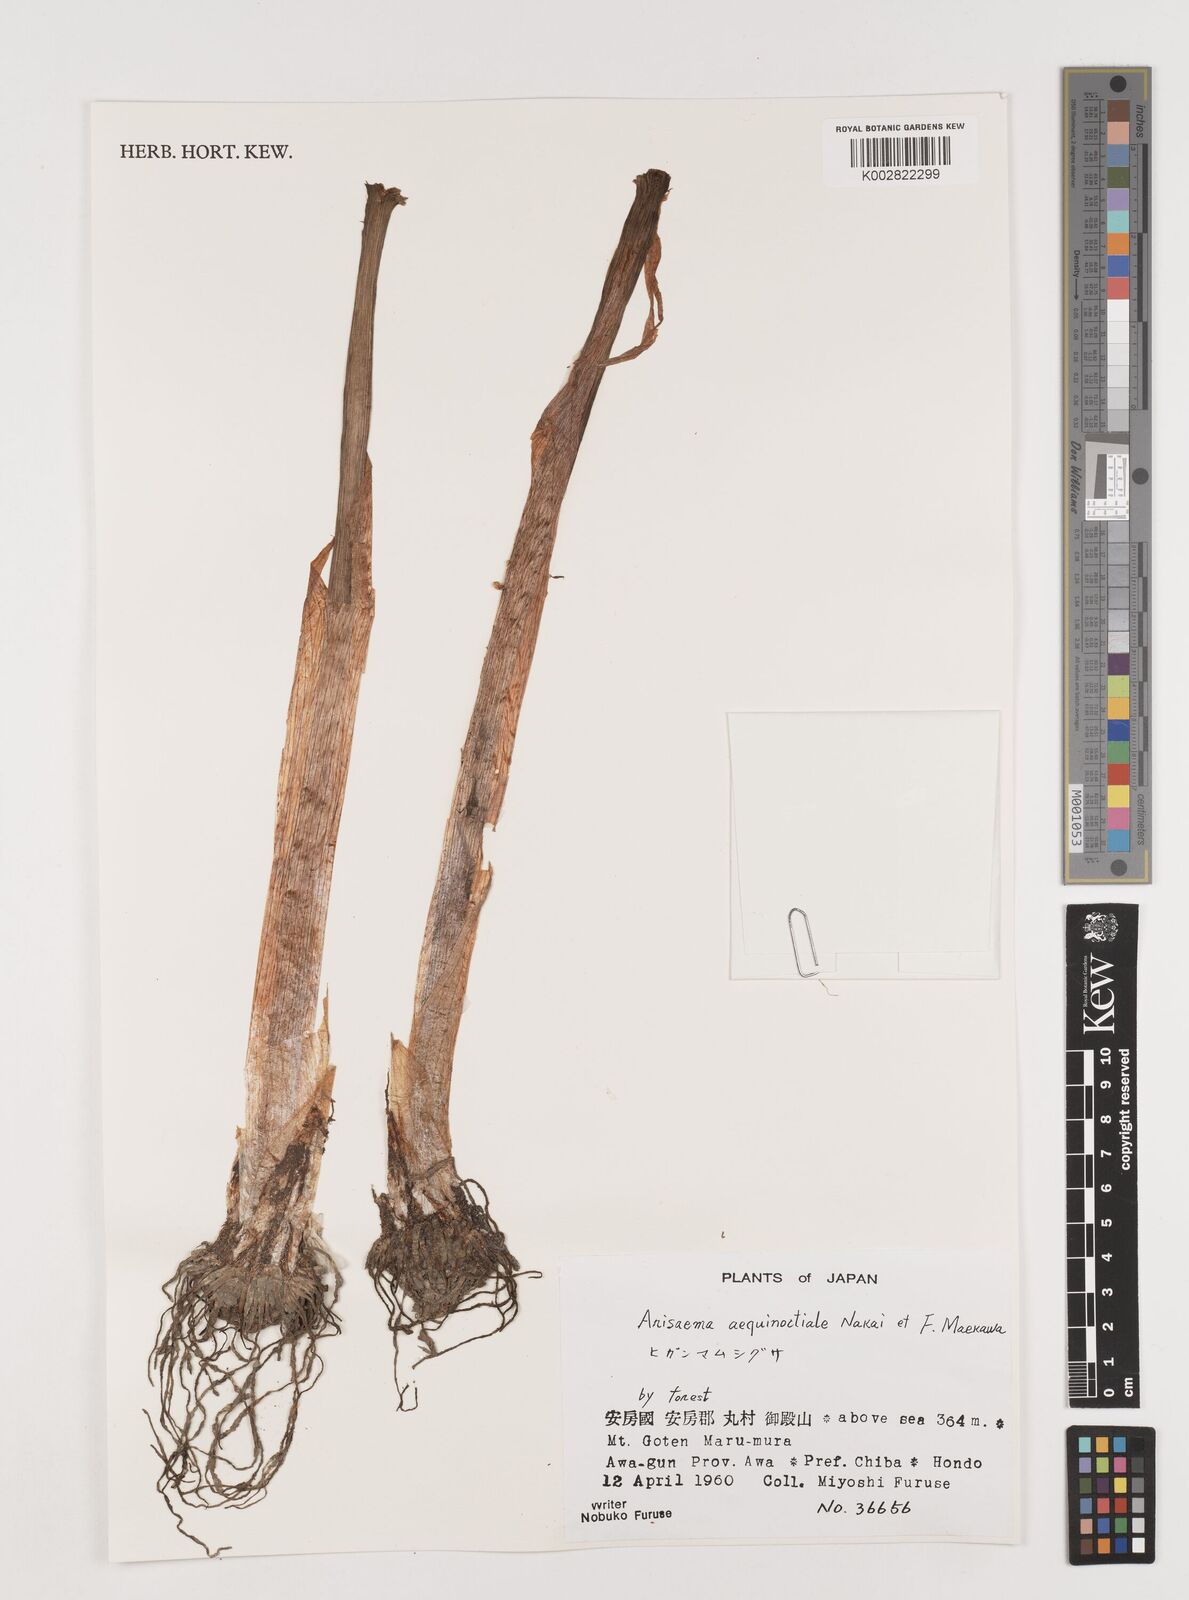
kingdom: Plantae
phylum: Tracheophyta
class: Liliopsida
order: Alismatales
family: Araceae
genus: Arisaema
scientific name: Arisaema aequinoctiale
